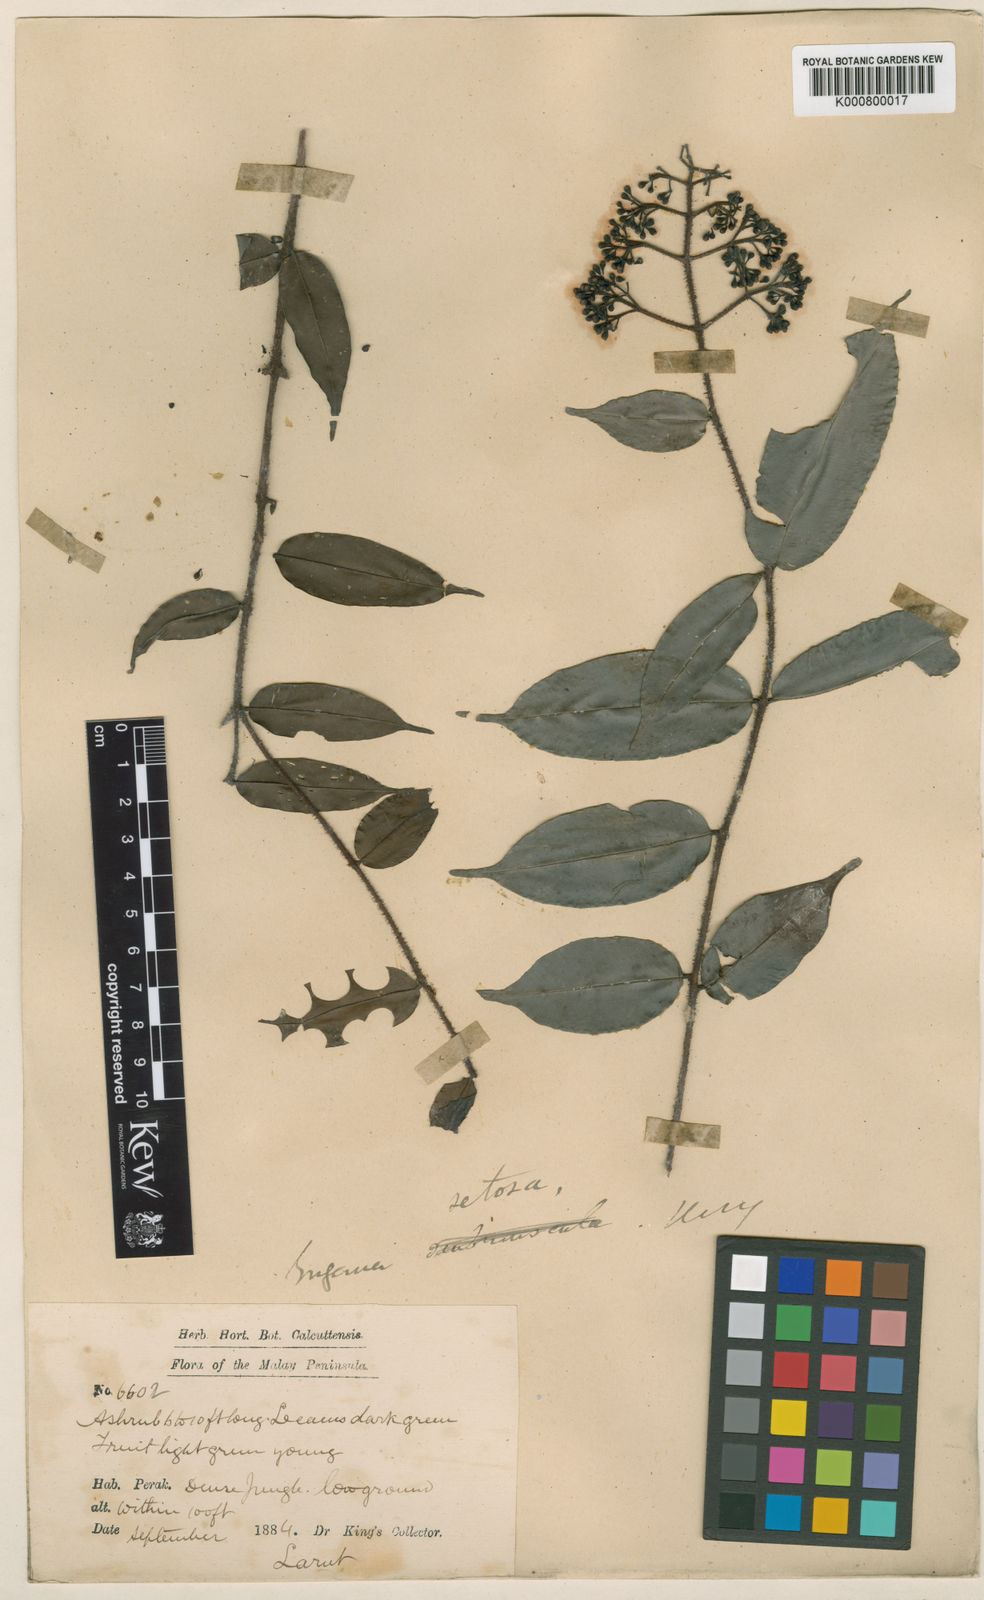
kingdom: Plantae
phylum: Tracheophyta
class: Magnoliopsida
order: Myrtales
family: Myrtaceae
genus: Syzygium
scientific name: Syzygium setosum
